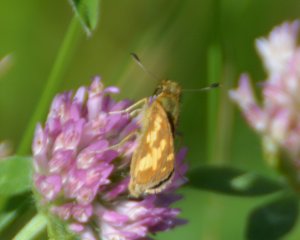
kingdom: Animalia
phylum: Arthropoda
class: Insecta
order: Lepidoptera
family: Hesperiidae
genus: Polites
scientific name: Polites coras
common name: Peck's Skipper
